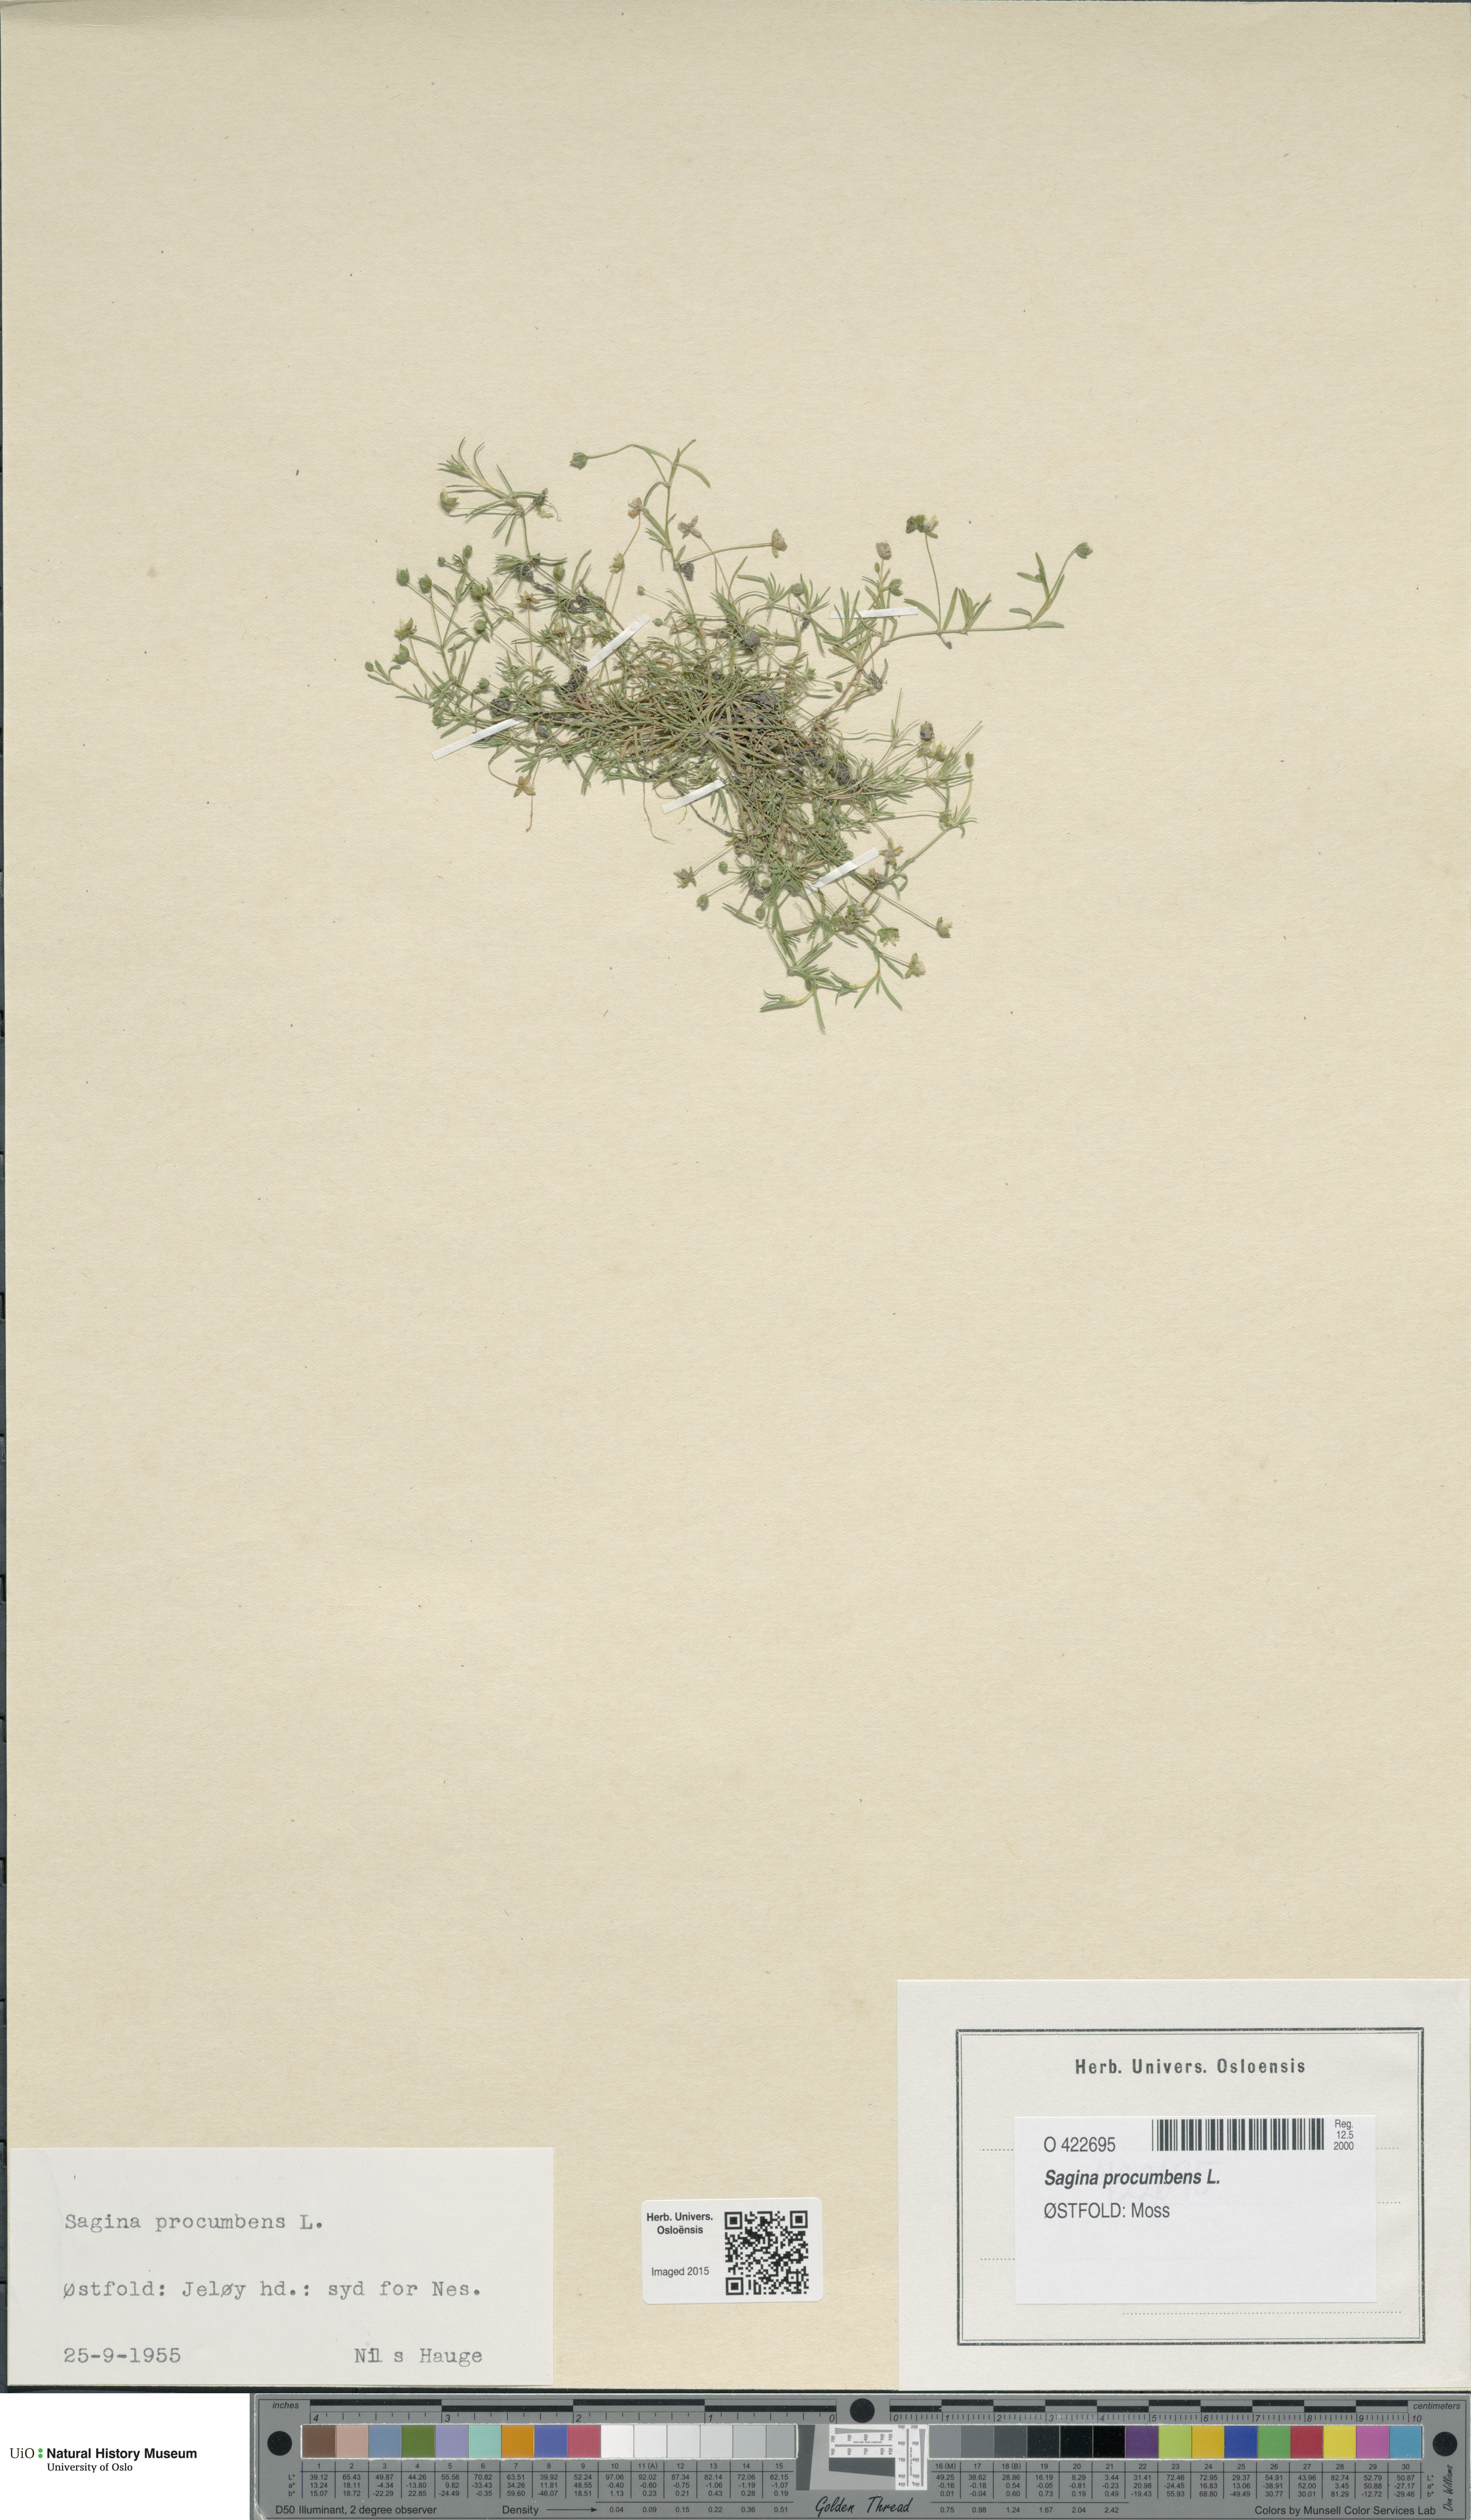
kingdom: Plantae
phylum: Tracheophyta
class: Magnoliopsida
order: Caryophyllales
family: Caryophyllaceae
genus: Sagina
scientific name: Sagina procumbens
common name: Procumbent pearlwort
